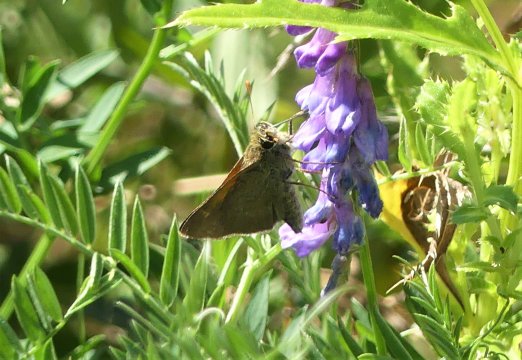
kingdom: Animalia
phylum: Arthropoda
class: Insecta
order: Lepidoptera
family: Hesperiidae
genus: Polites
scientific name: Polites themistocles
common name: Tawny-edged Skipper
